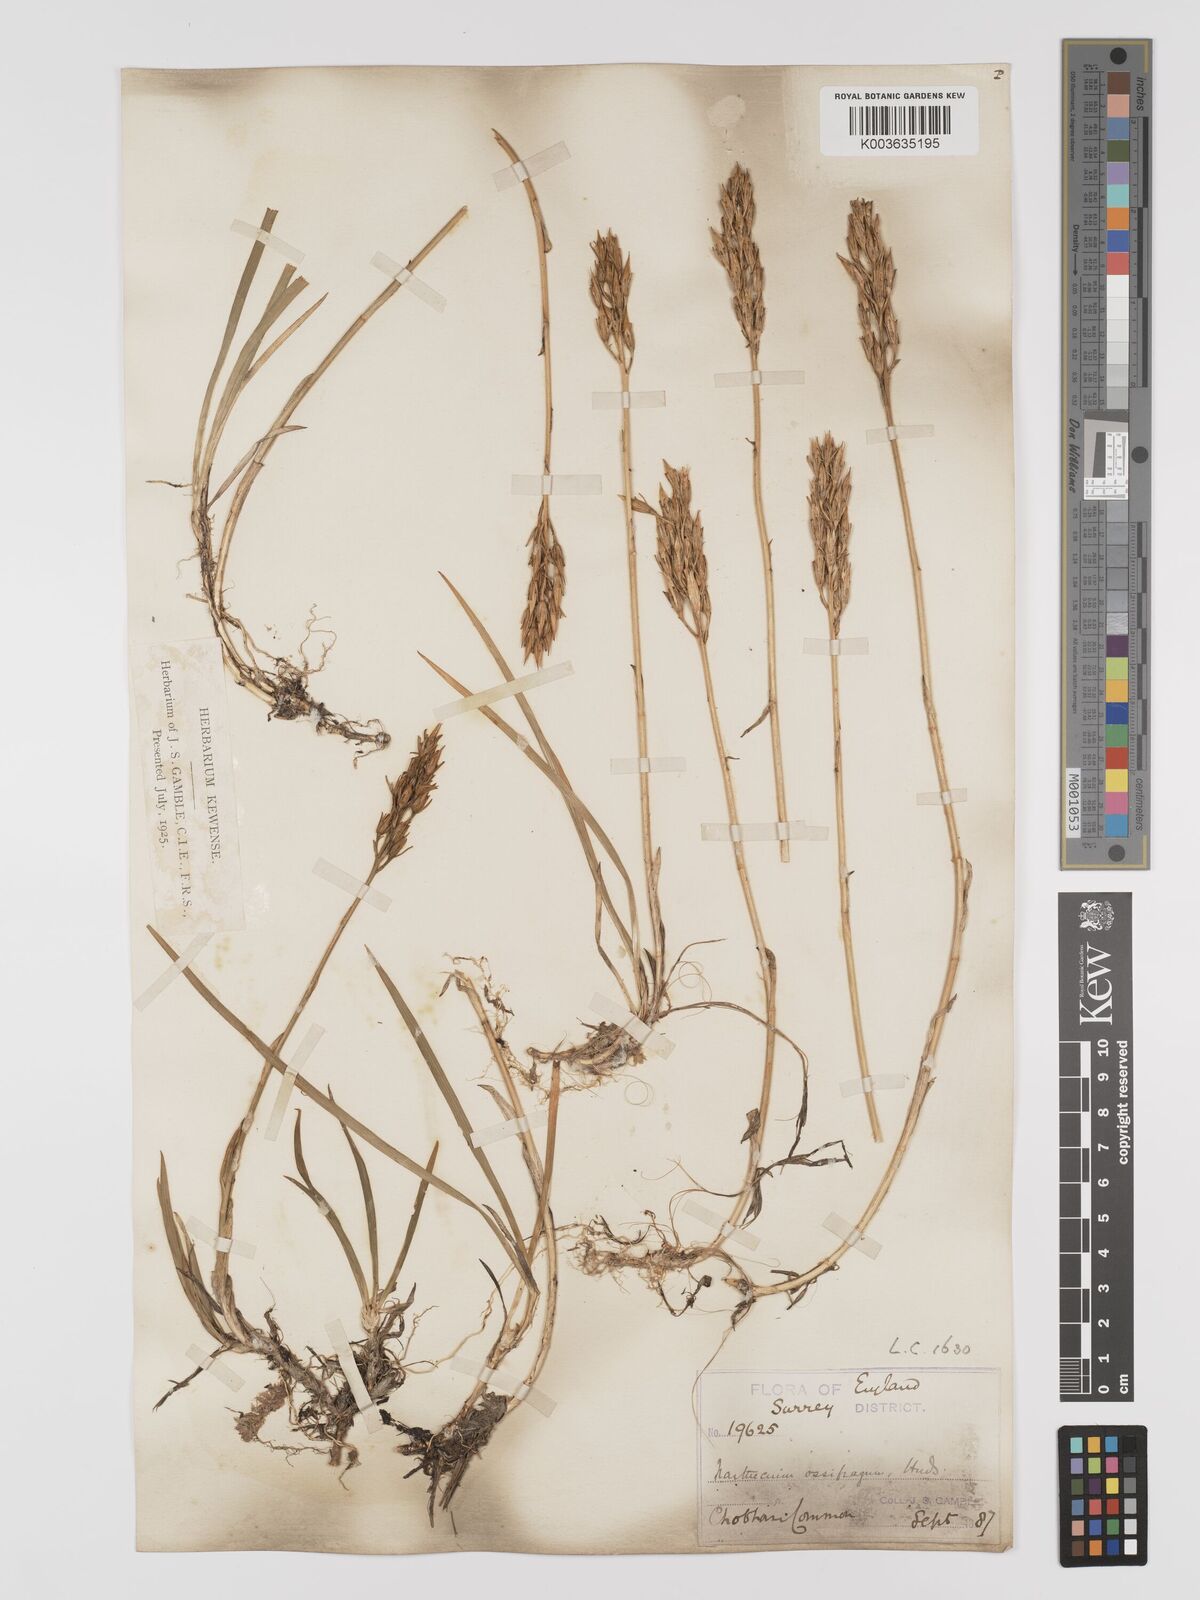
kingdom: Plantae
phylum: Tracheophyta
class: Liliopsida
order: Dioscoreales
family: Nartheciaceae
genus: Narthecium
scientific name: Narthecium
